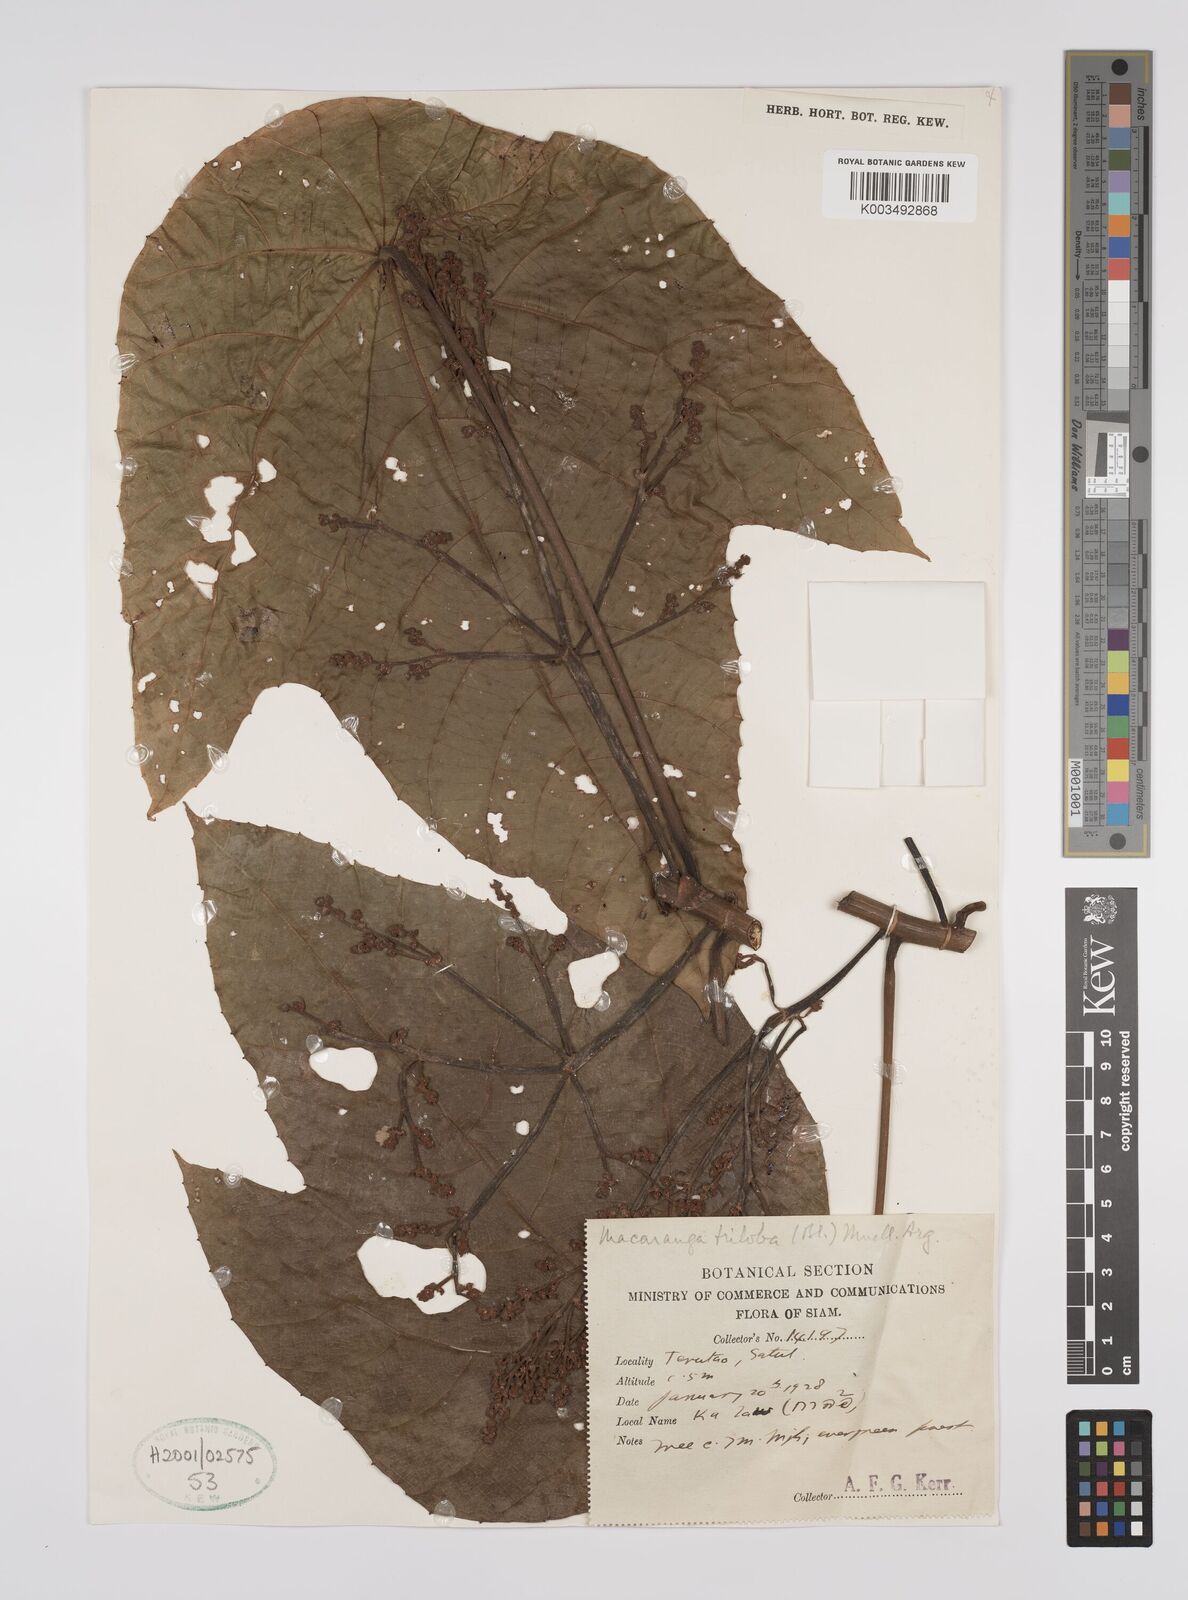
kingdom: Plantae
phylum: Tracheophyta
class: Magnoliopsida
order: Malpighiales
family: Euphorbiaceae
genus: Macaranga
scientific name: Macaranga triloba
